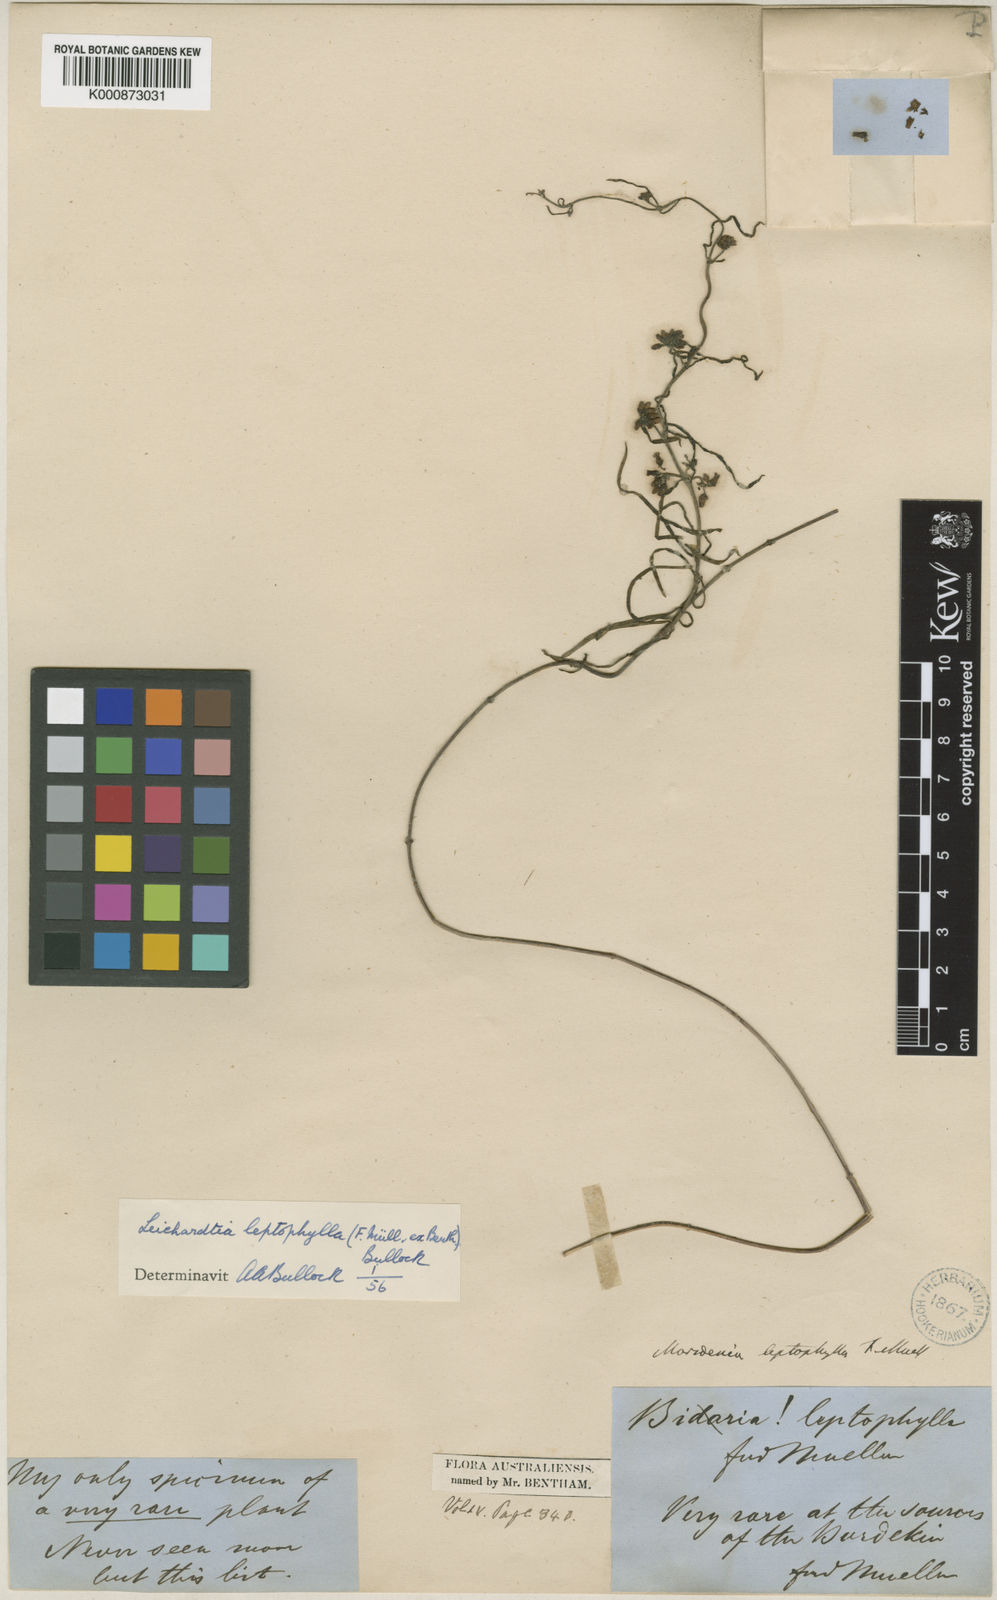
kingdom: Plantae
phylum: Tracheophyta
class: Magnoliopsida
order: Gentianales
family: Apocynaceae
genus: Leichhardtia
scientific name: Leichhardtia viridiflora
